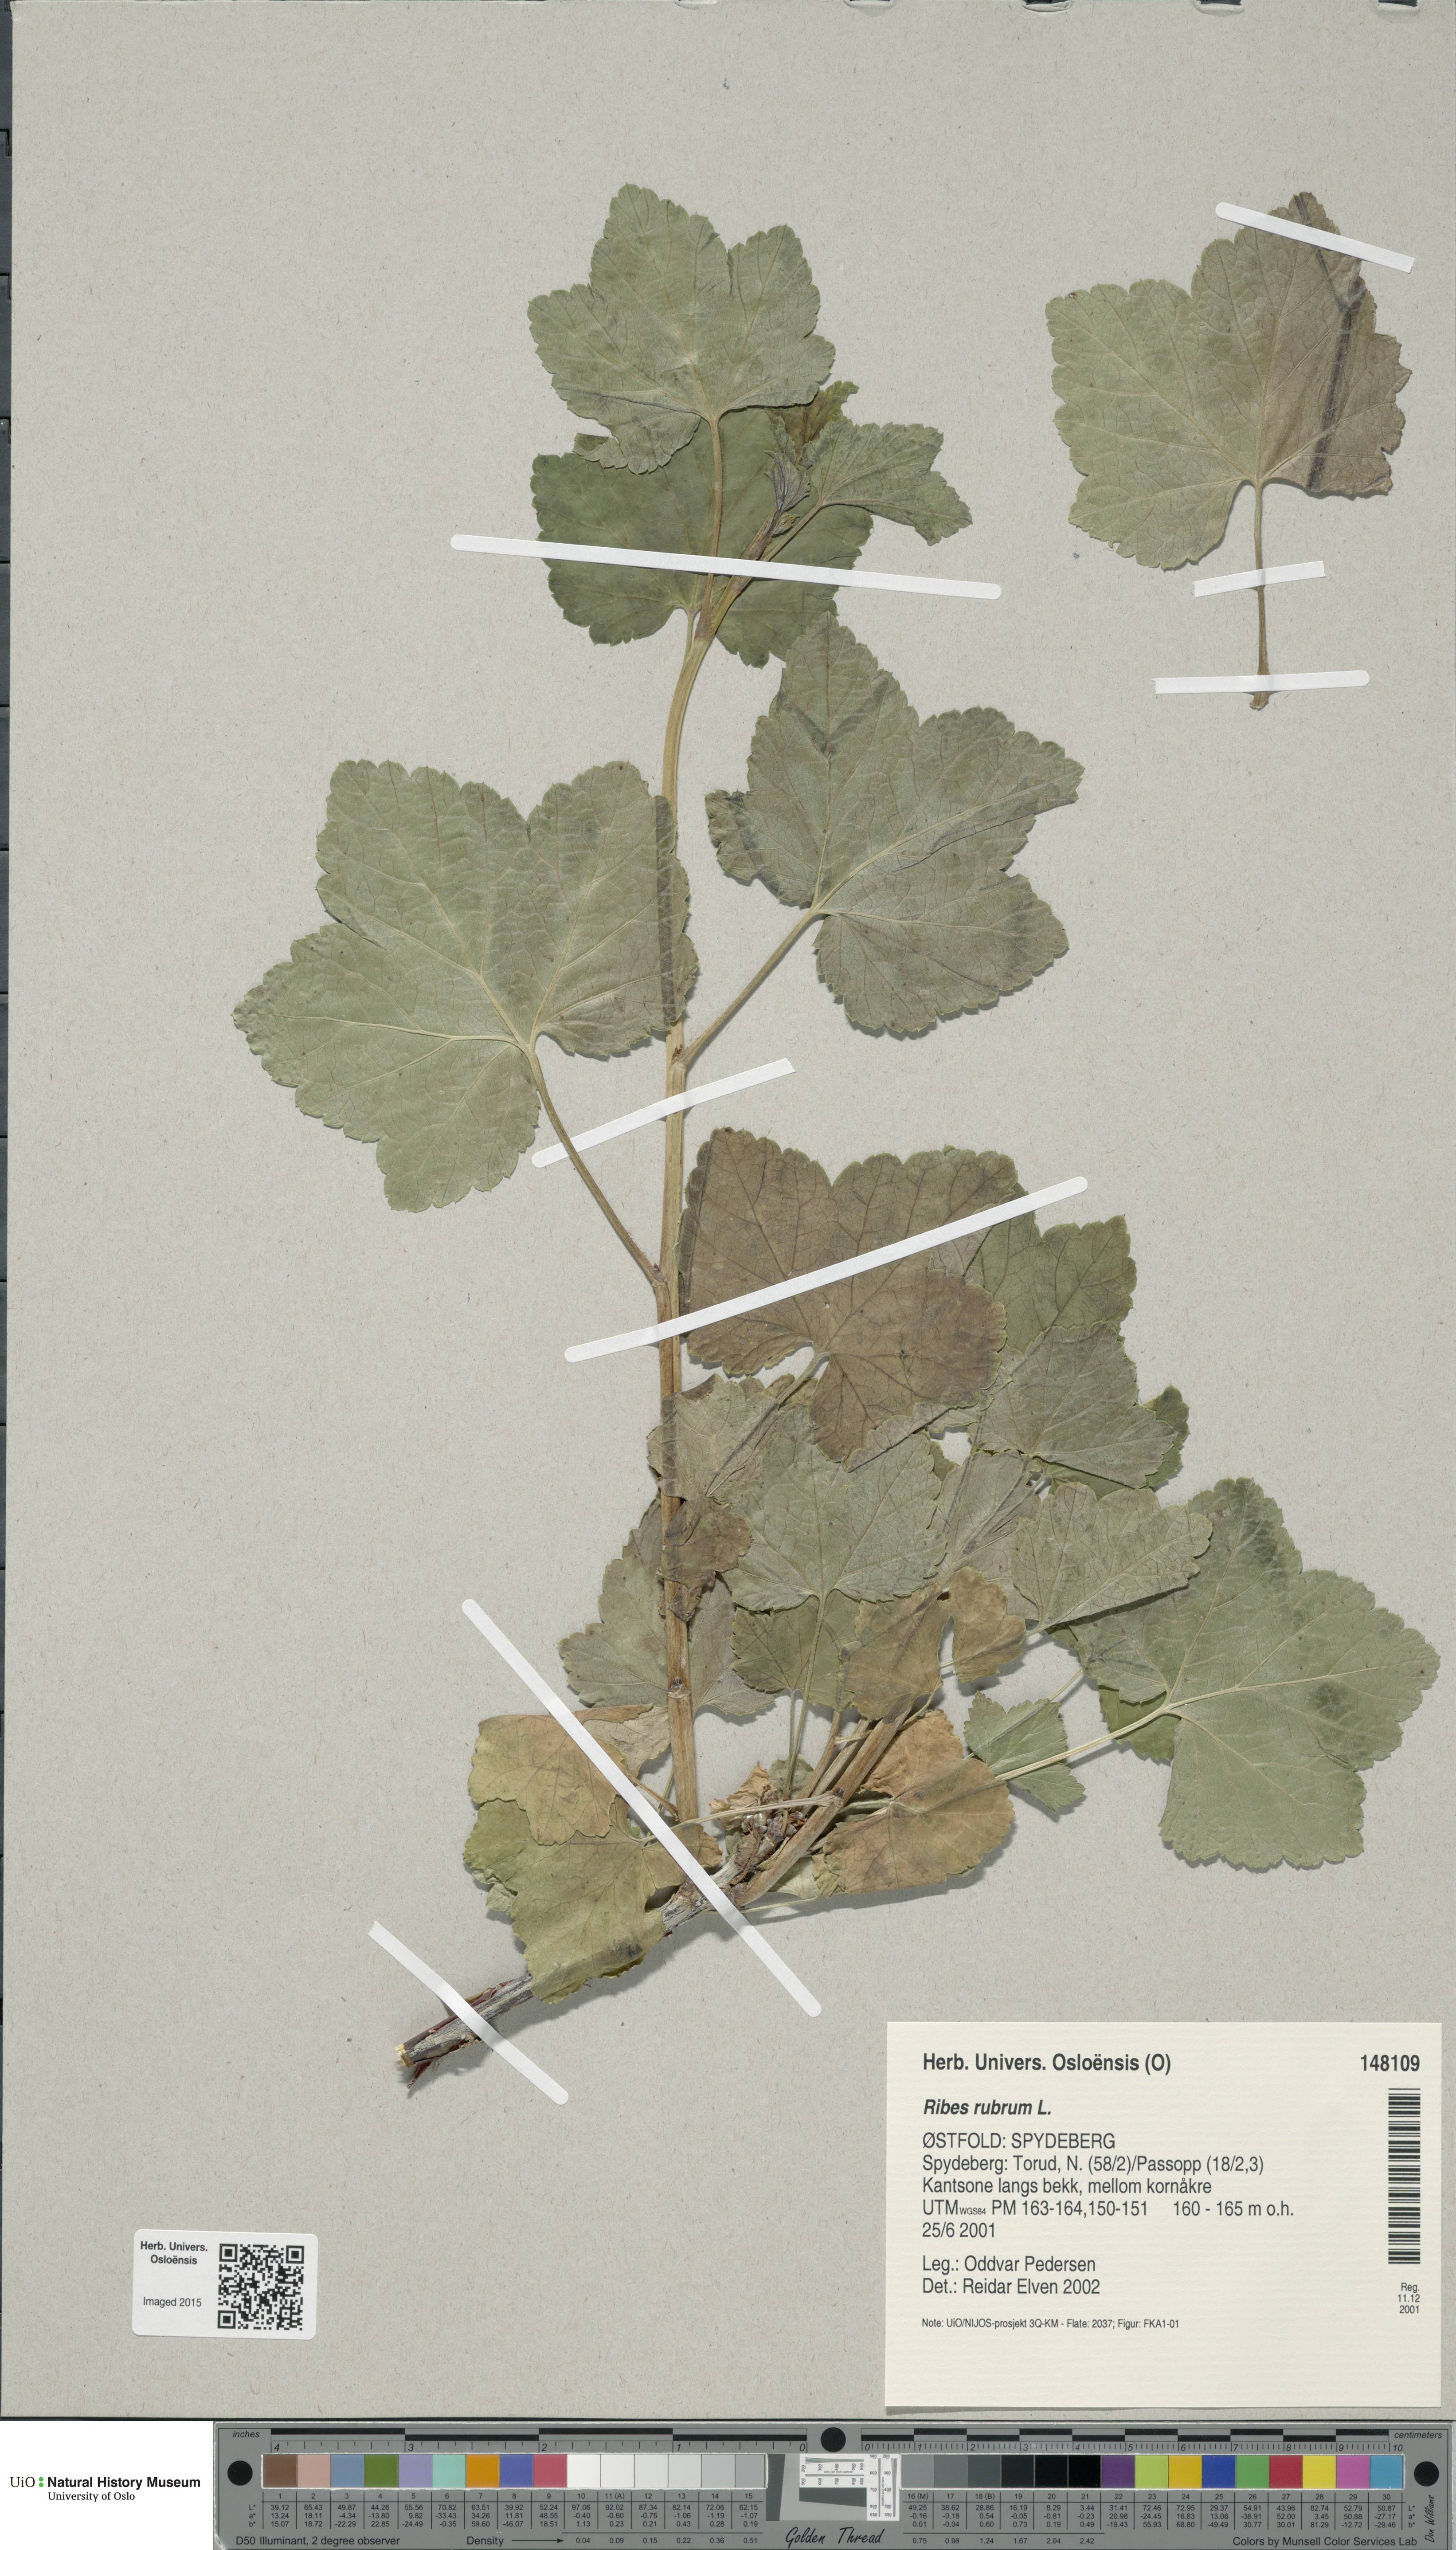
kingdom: Plantae
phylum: Tracheophyta
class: Magnoliopsida
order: Saxifragales
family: Grossulariaceae
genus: Ribes
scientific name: Ribes rubrum
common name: Red currant
